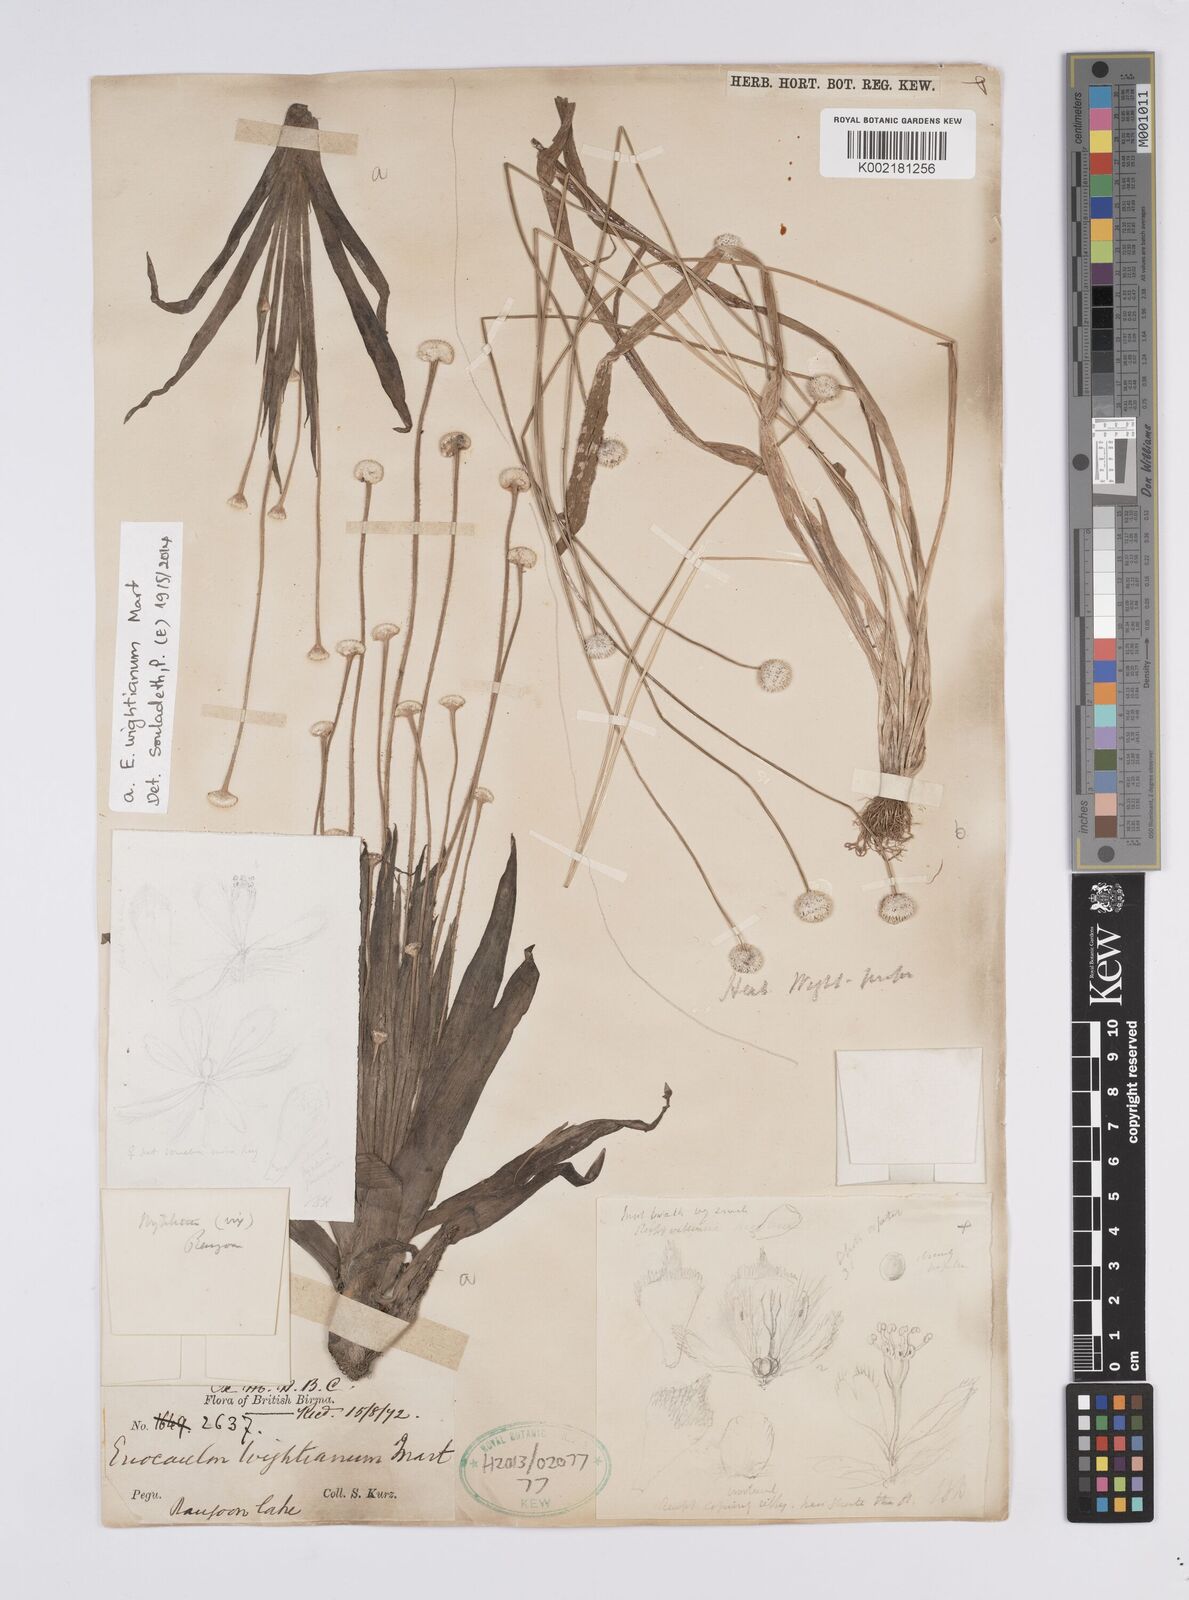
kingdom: Plantae
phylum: Tracheophyta
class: Liliopsida
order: Poales
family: Eriocaulaceae
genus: Eriocaulon
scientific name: Eriocaulon wightianum
